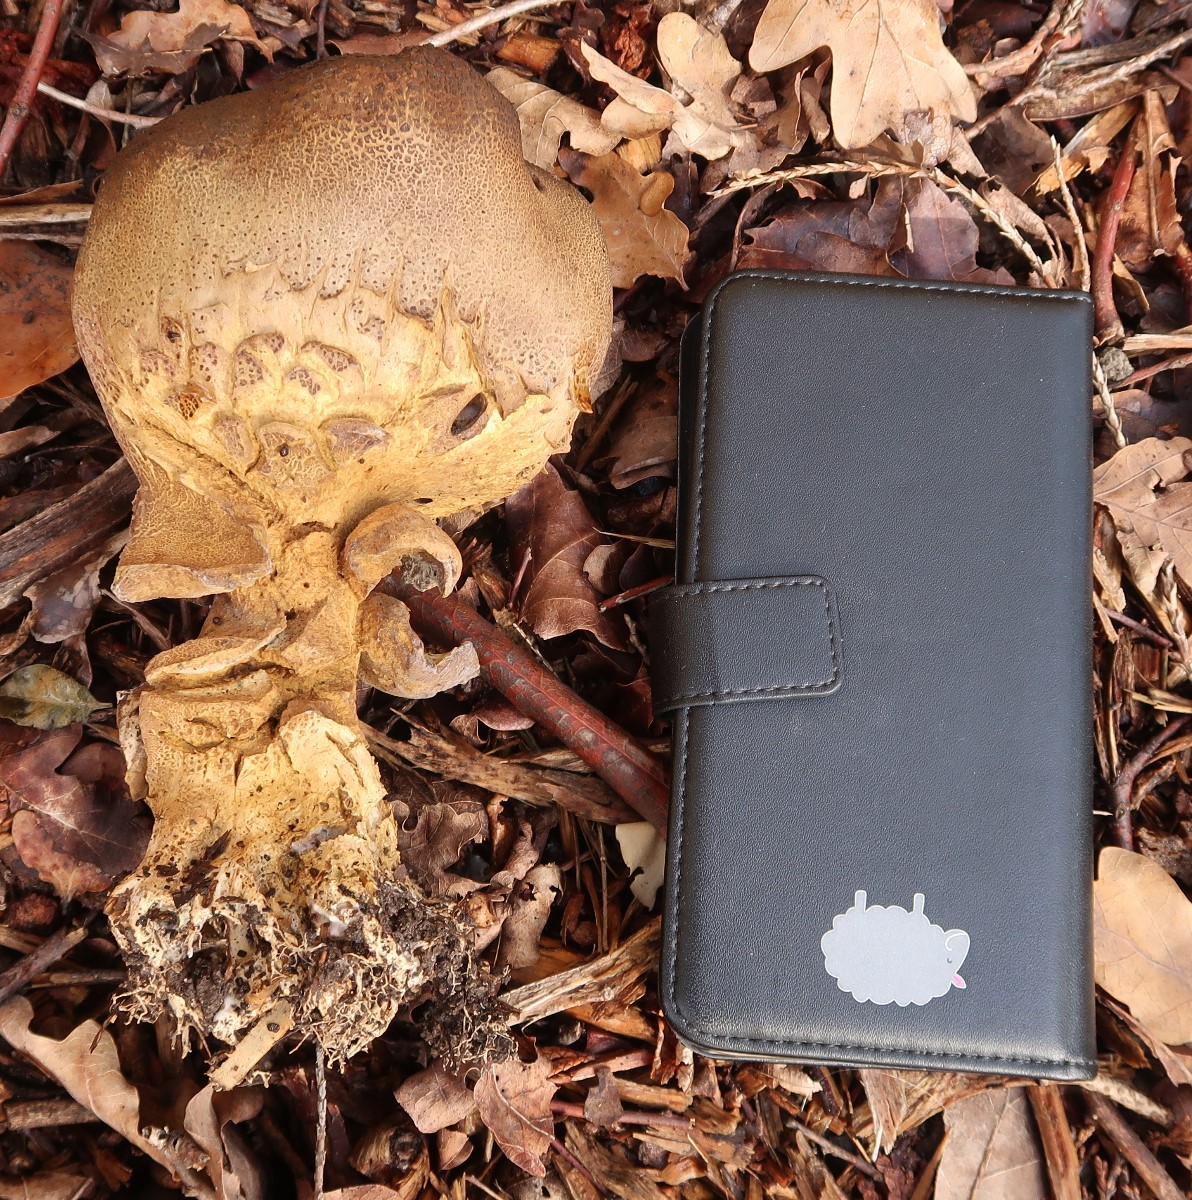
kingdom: Fungi
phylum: Basidiomycota
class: Agaricomycetes
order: Boletales
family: Sclerodermataceae
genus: Scleroderma
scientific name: Scleroderma verrucosum
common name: stilket bruskbold
